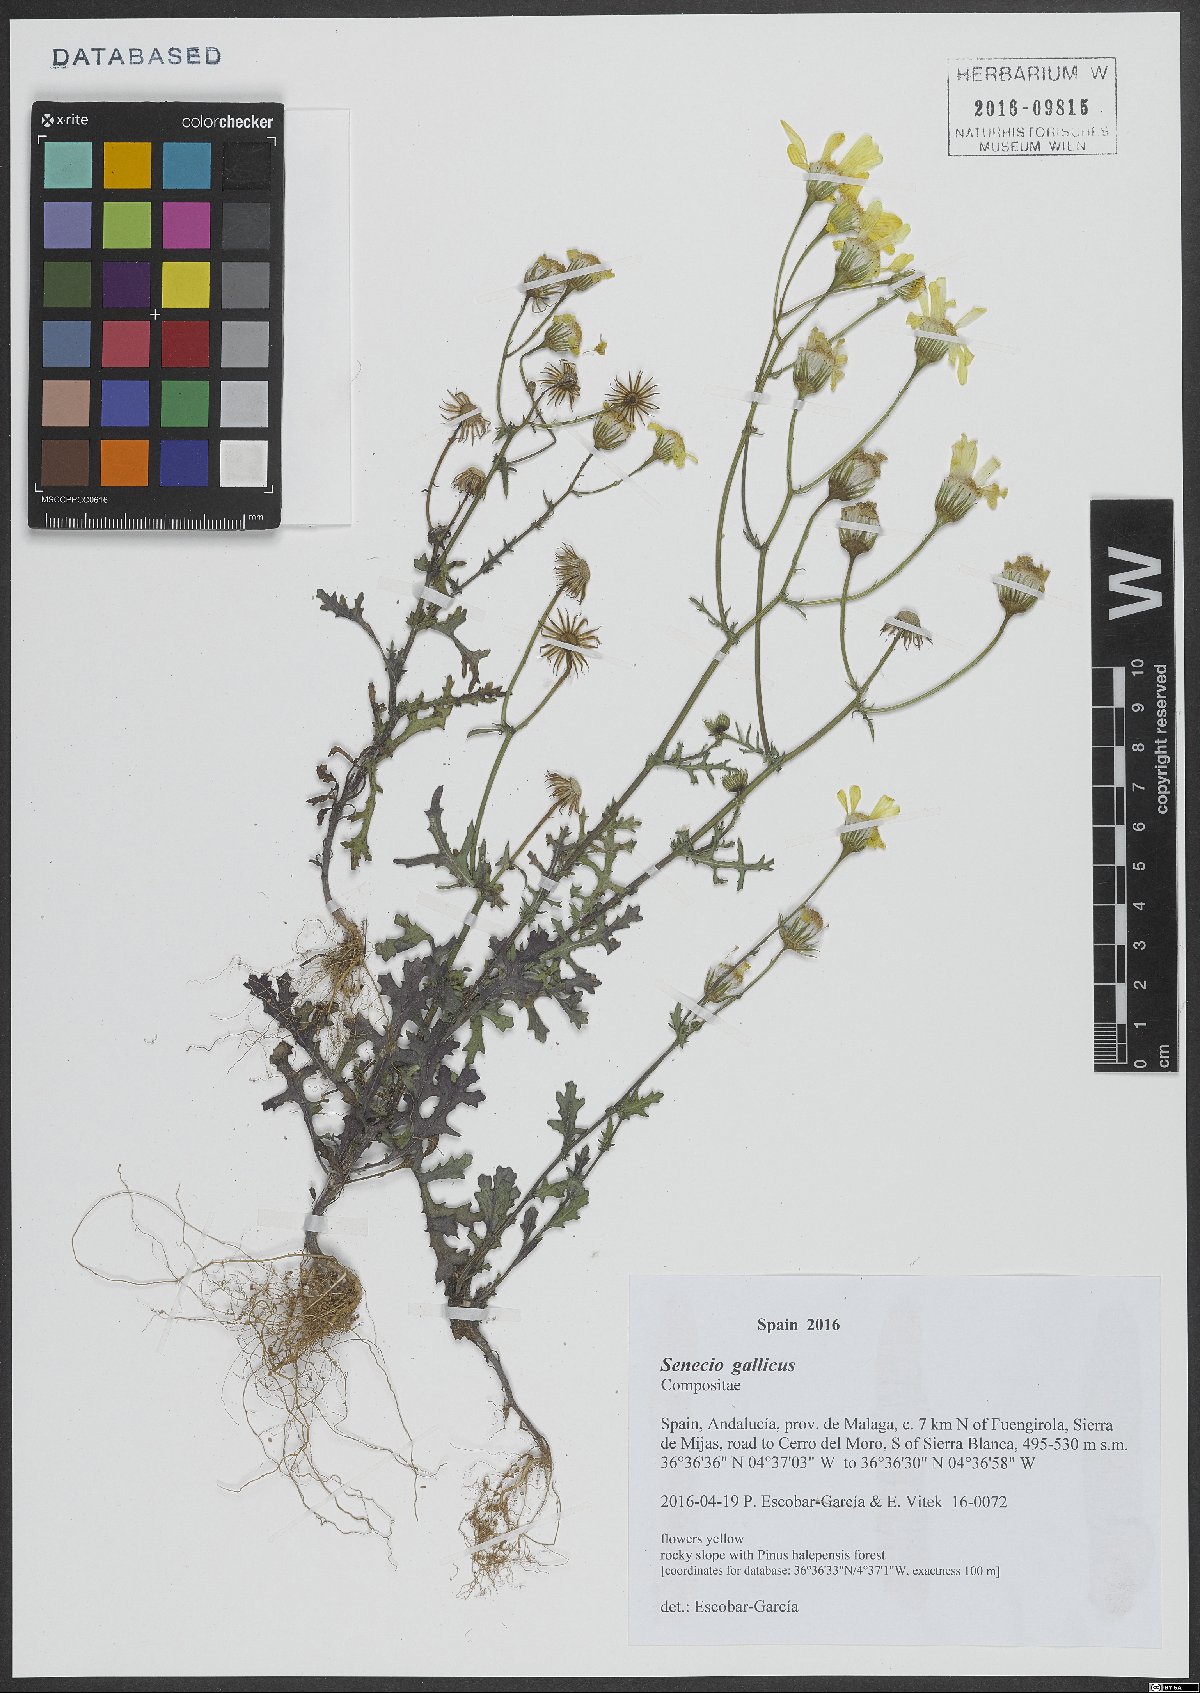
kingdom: Plantae
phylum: Tracheophyta
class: Magnoliopsida
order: Asterales
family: Asteraceae
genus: Senecio
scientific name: Senecio gallicus
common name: French groundsel
